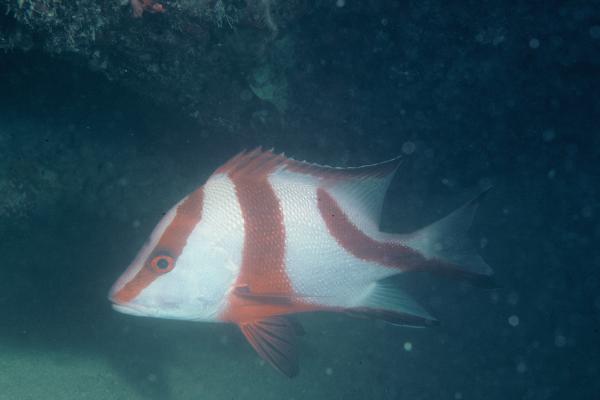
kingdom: Animalia
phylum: Chordata
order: Perciformes
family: Lutjanidae
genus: Lutjanus
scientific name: Lutjanus sebae
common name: Emperor red snapper
